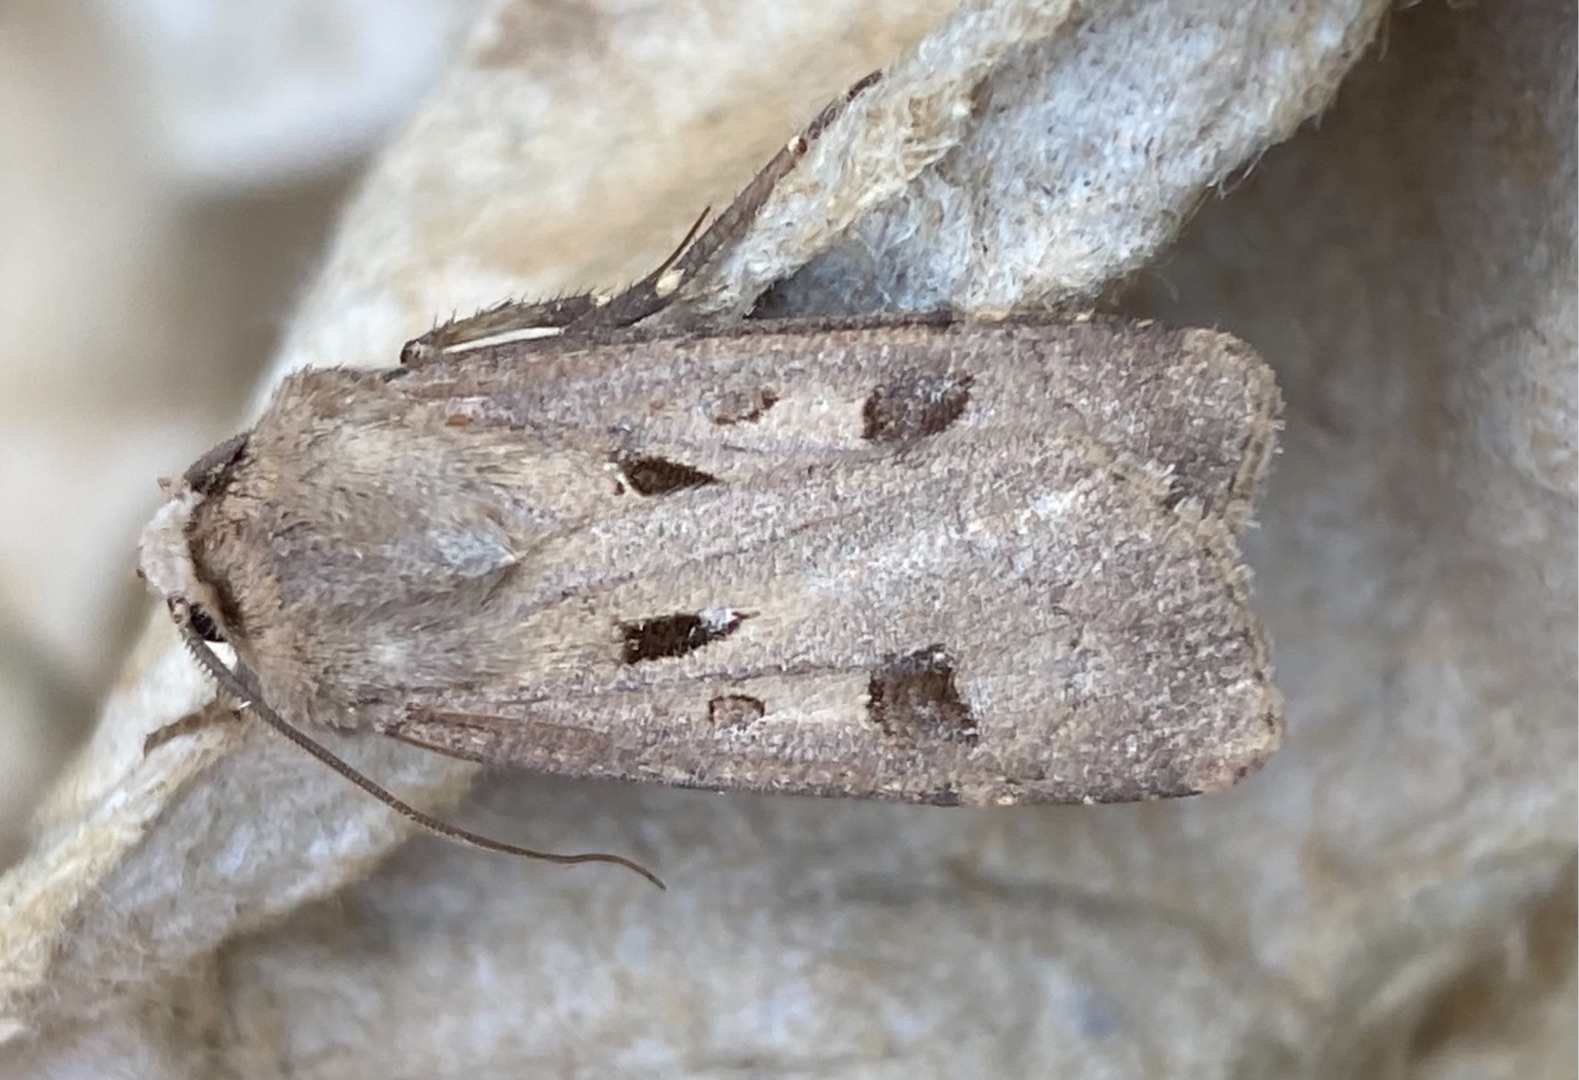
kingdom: Animalia
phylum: Arthropoda
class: Insecta
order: Lepidoptera
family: Noctuidae
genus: Agrotis
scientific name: Agrotis exclamationis
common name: Udråbstegnsugle
